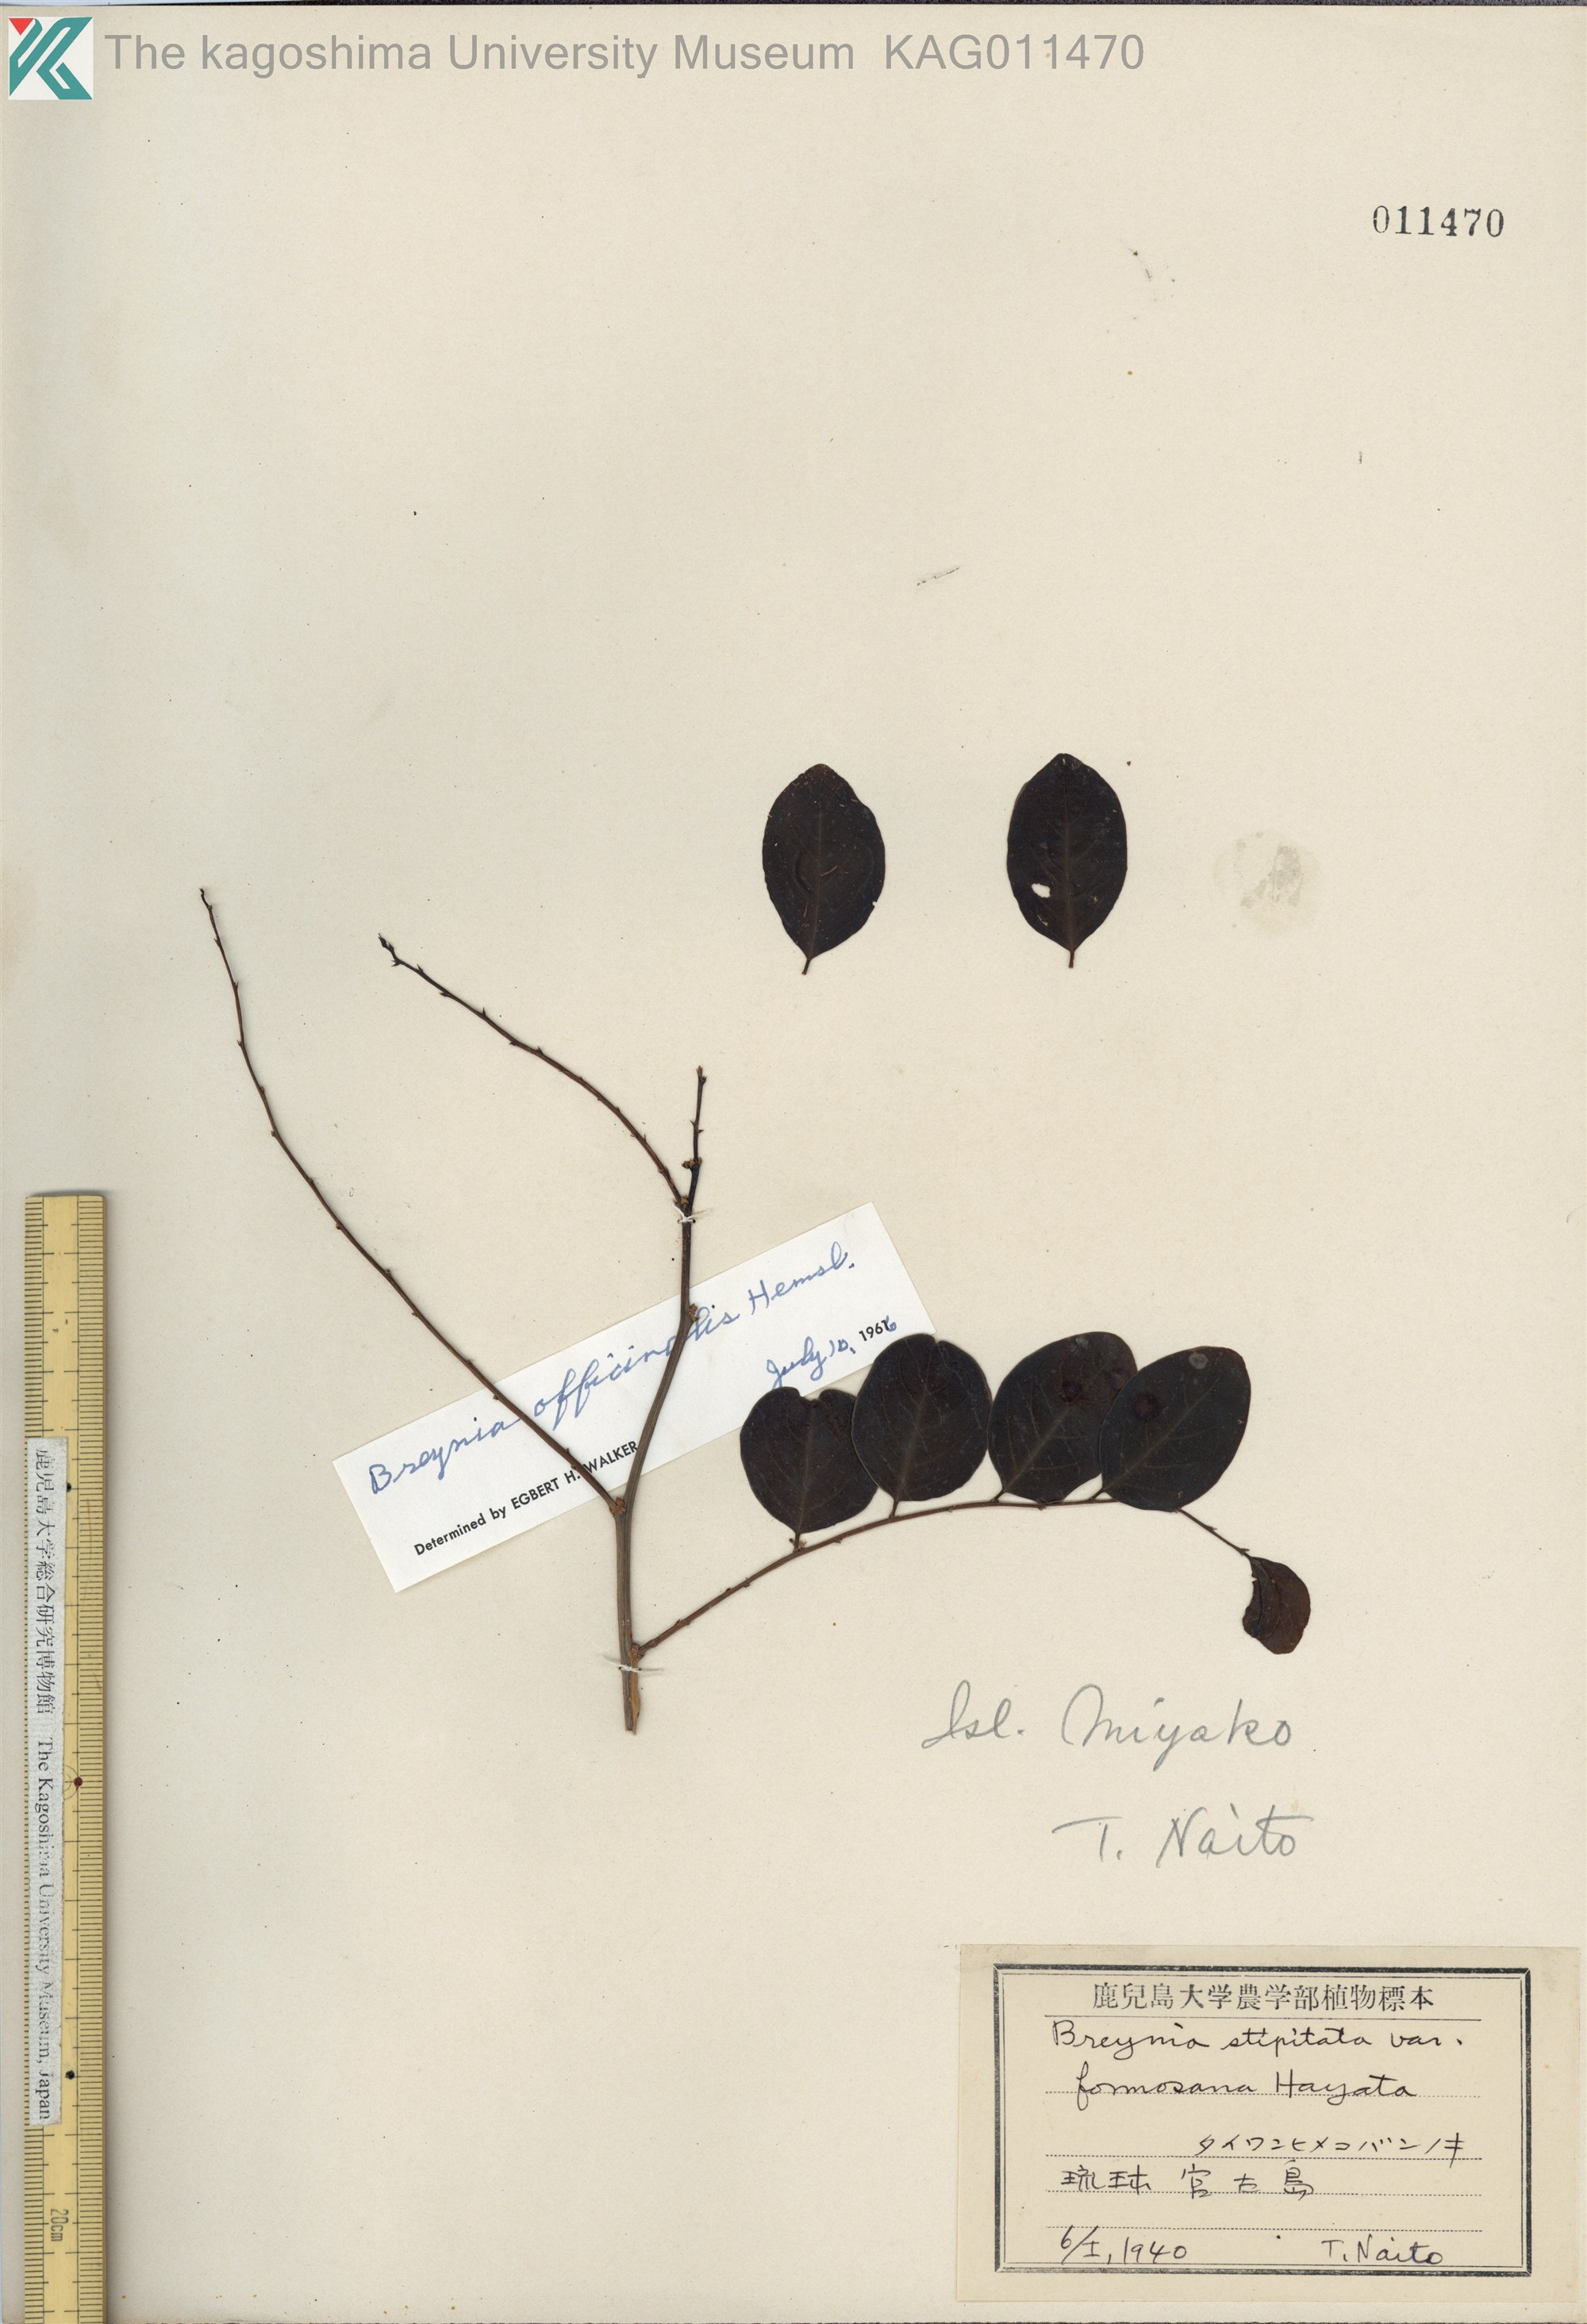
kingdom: Plantae
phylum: Tracheophyta
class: Magnoliopsida
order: Malpighiales
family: Phyllanthaceae
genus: Breynia
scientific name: Breynia vitis-idaea
